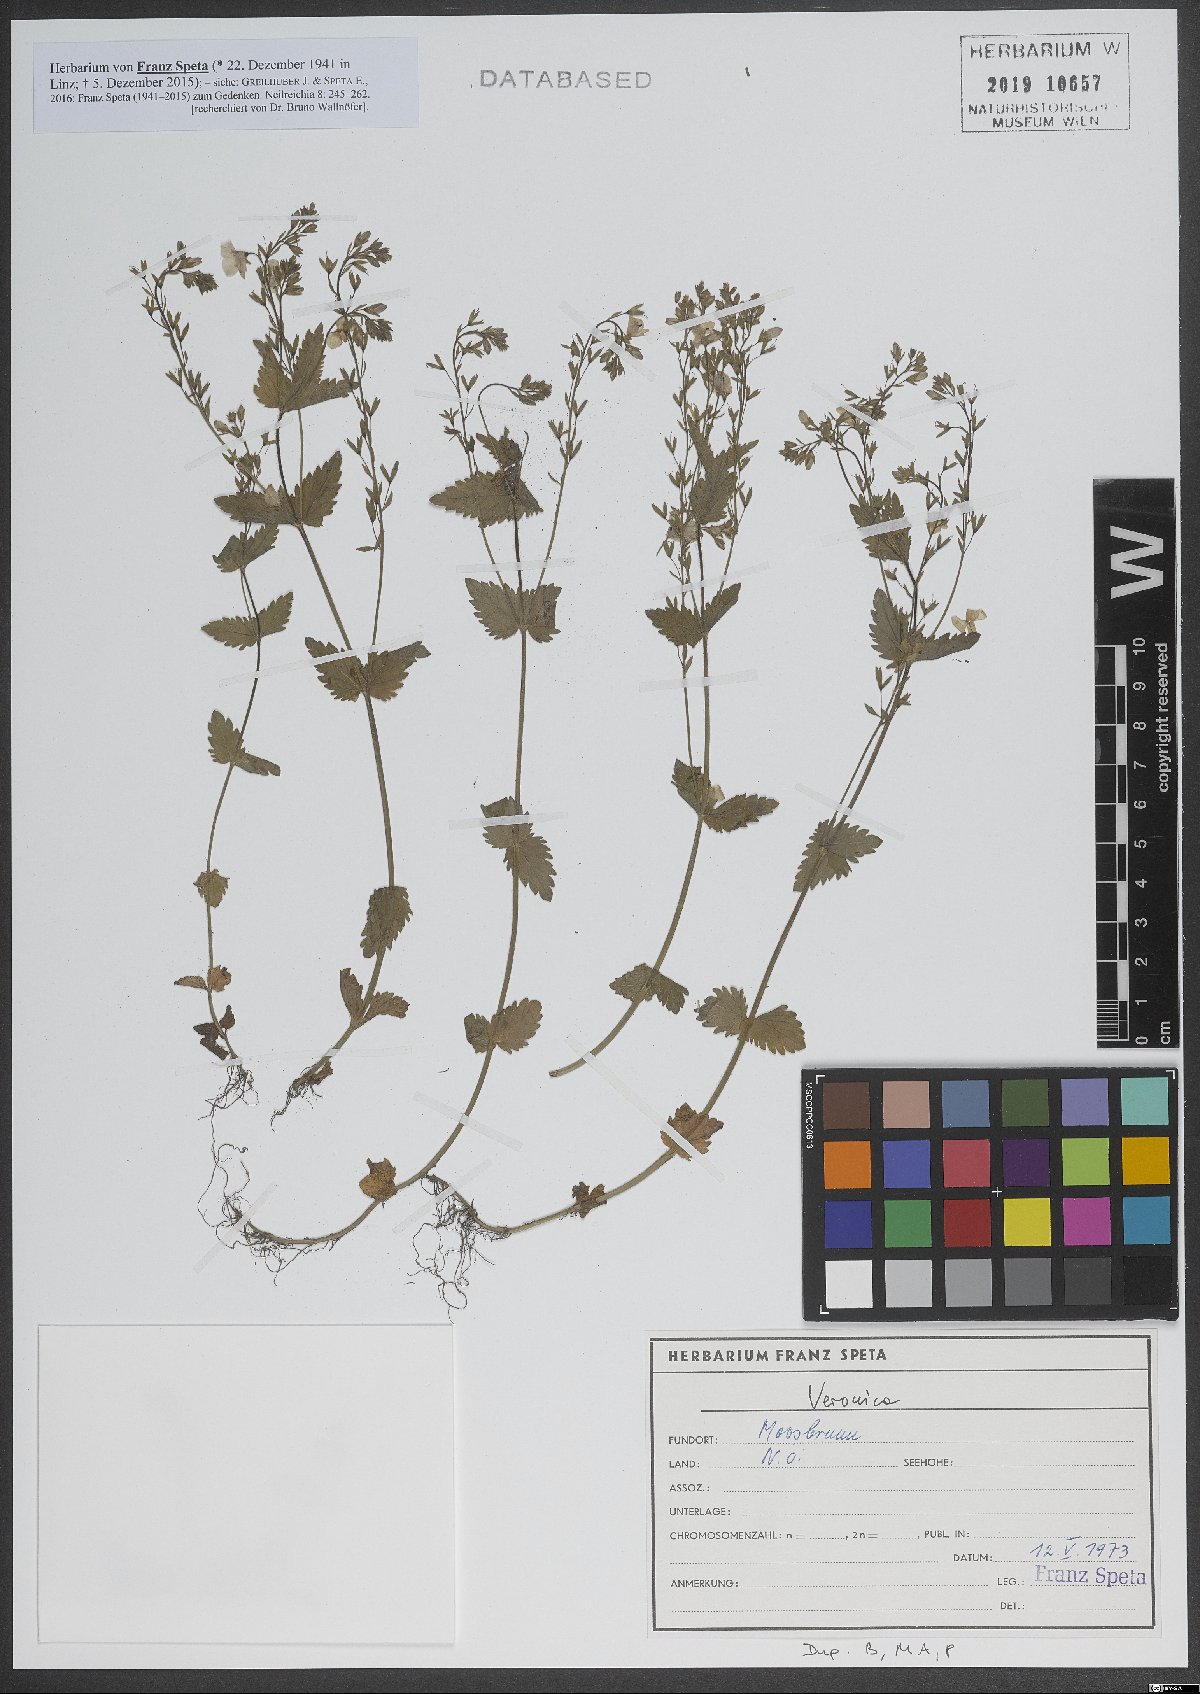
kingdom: Plantae
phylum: Tracheophyta
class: Magnoliopsida
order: Lamiales
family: Plantaginaceae
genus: Veronica
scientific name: Veronica
